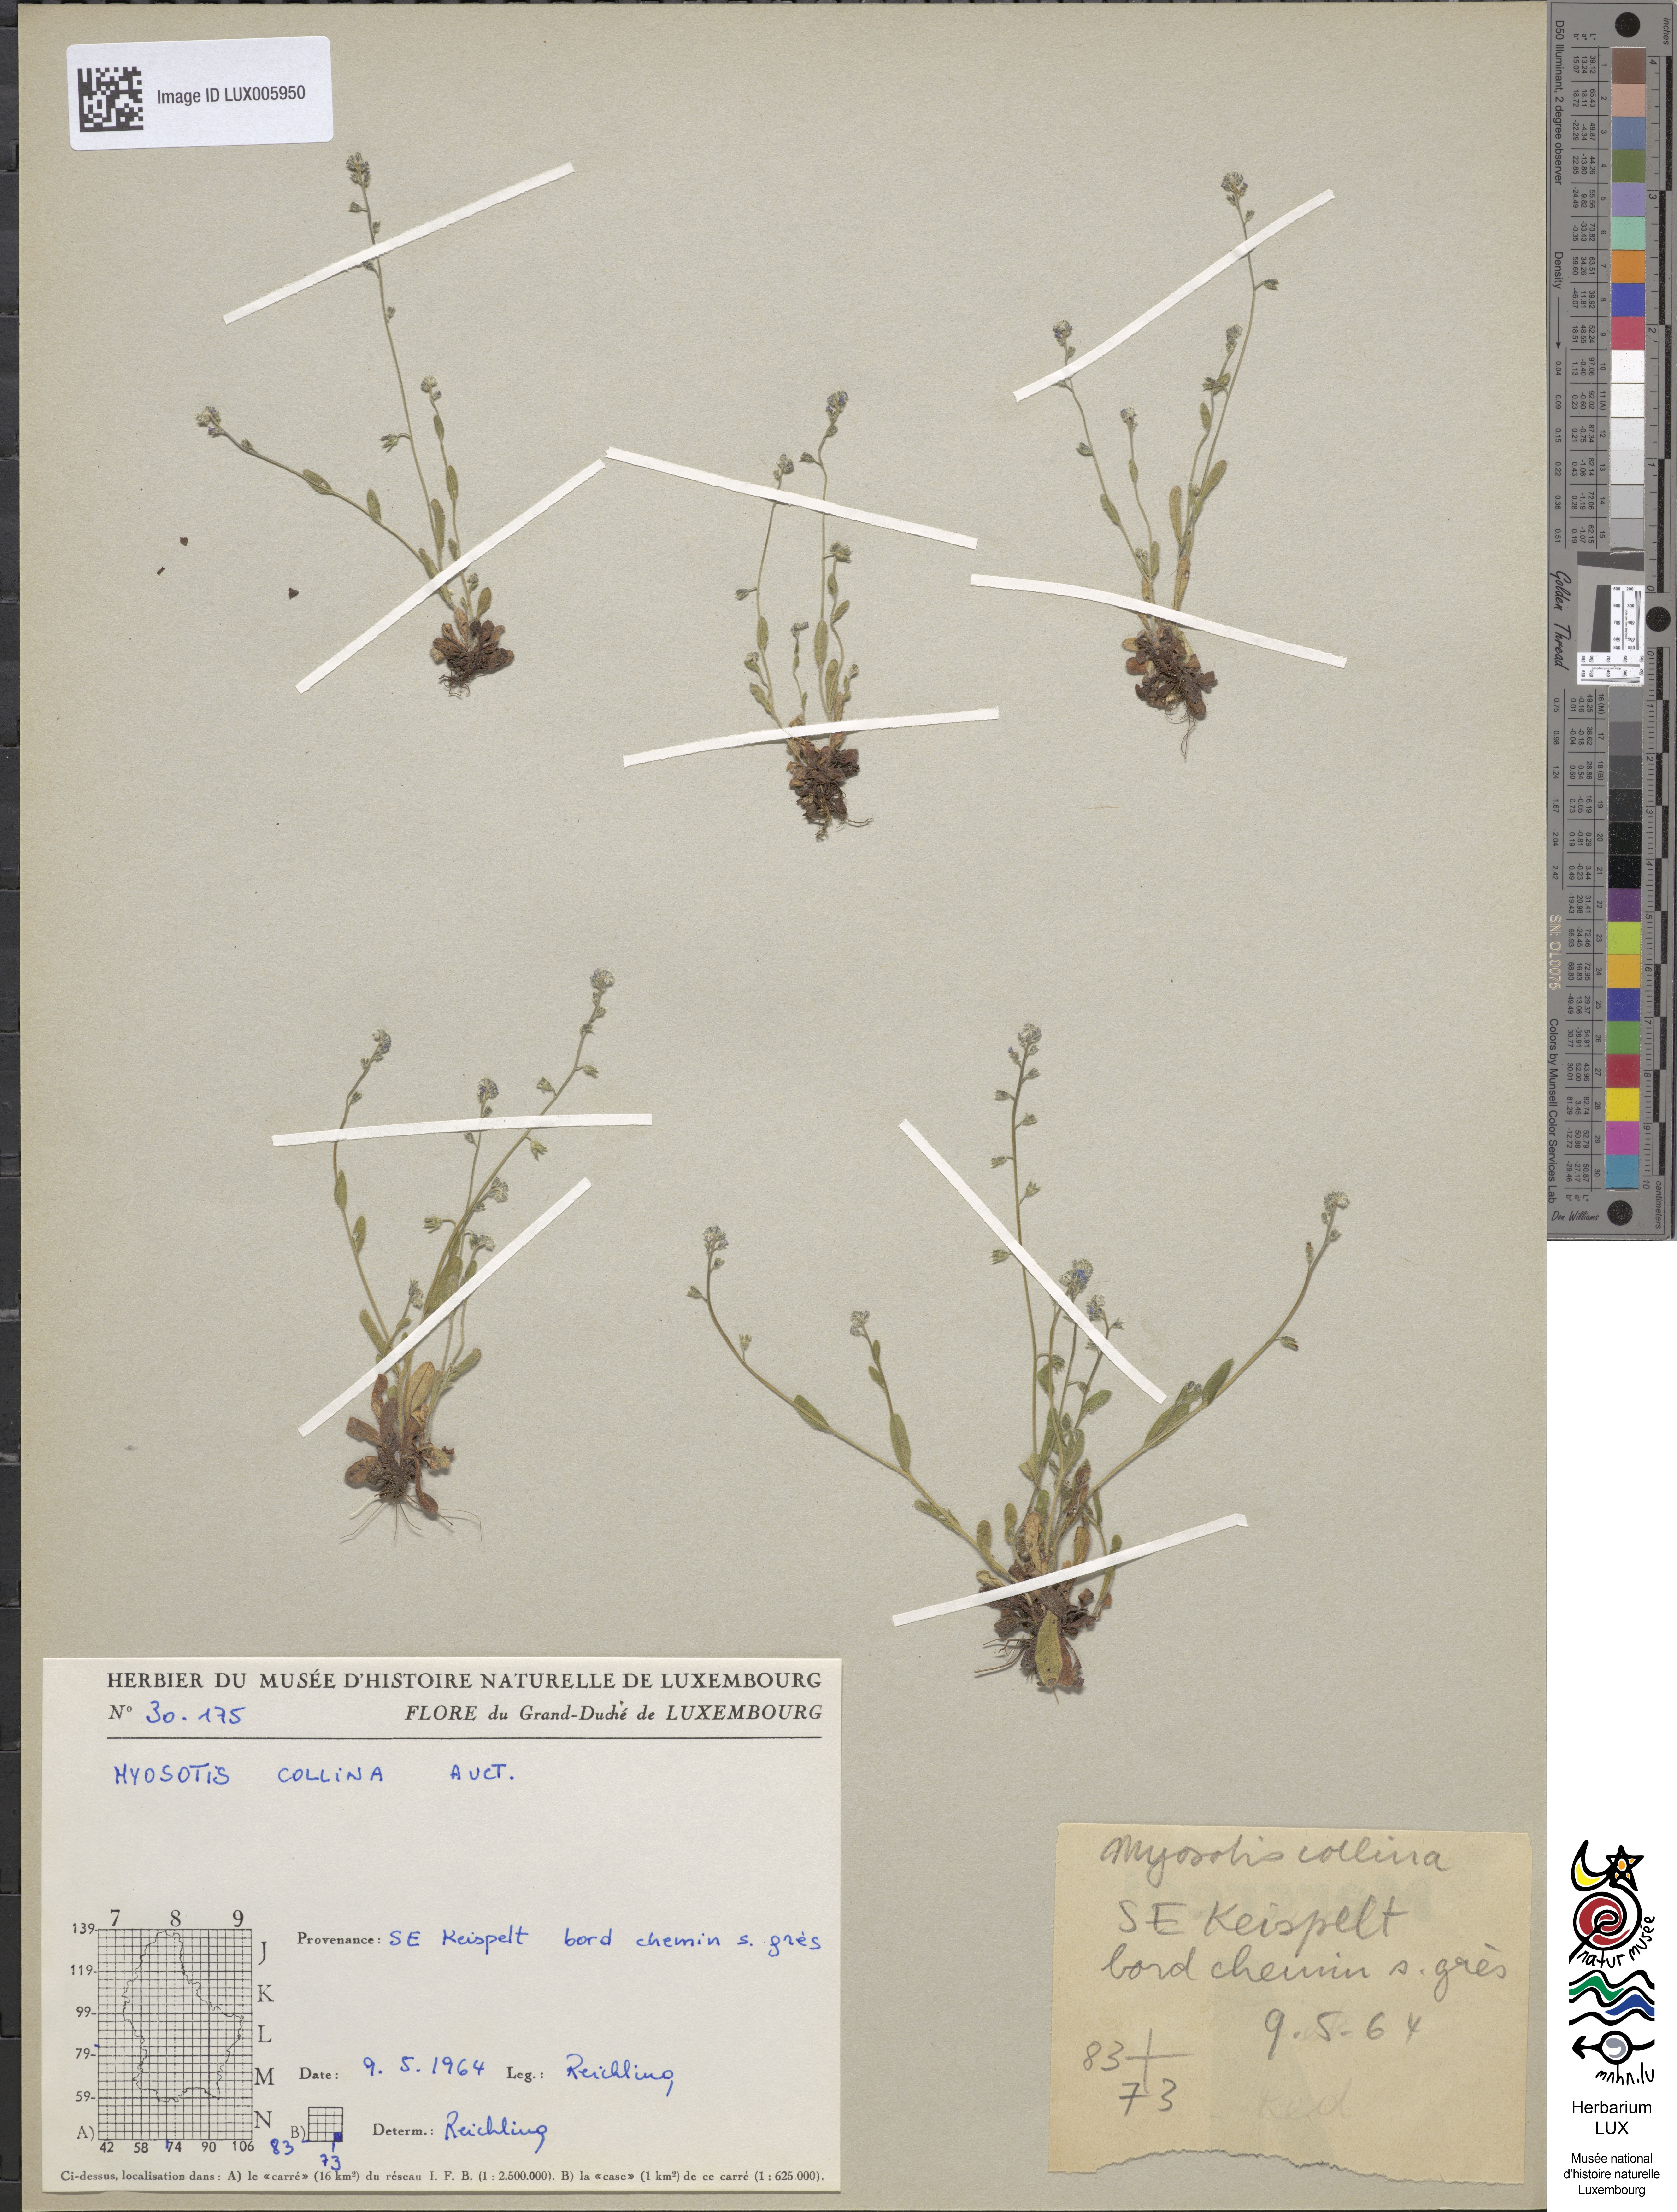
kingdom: Plantae
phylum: Tracheophyta
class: Magnoliopsida
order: Boraginales
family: Boraginaceae
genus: Myosotis
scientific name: Myosotis ramosissima
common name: Early forget-me-not
